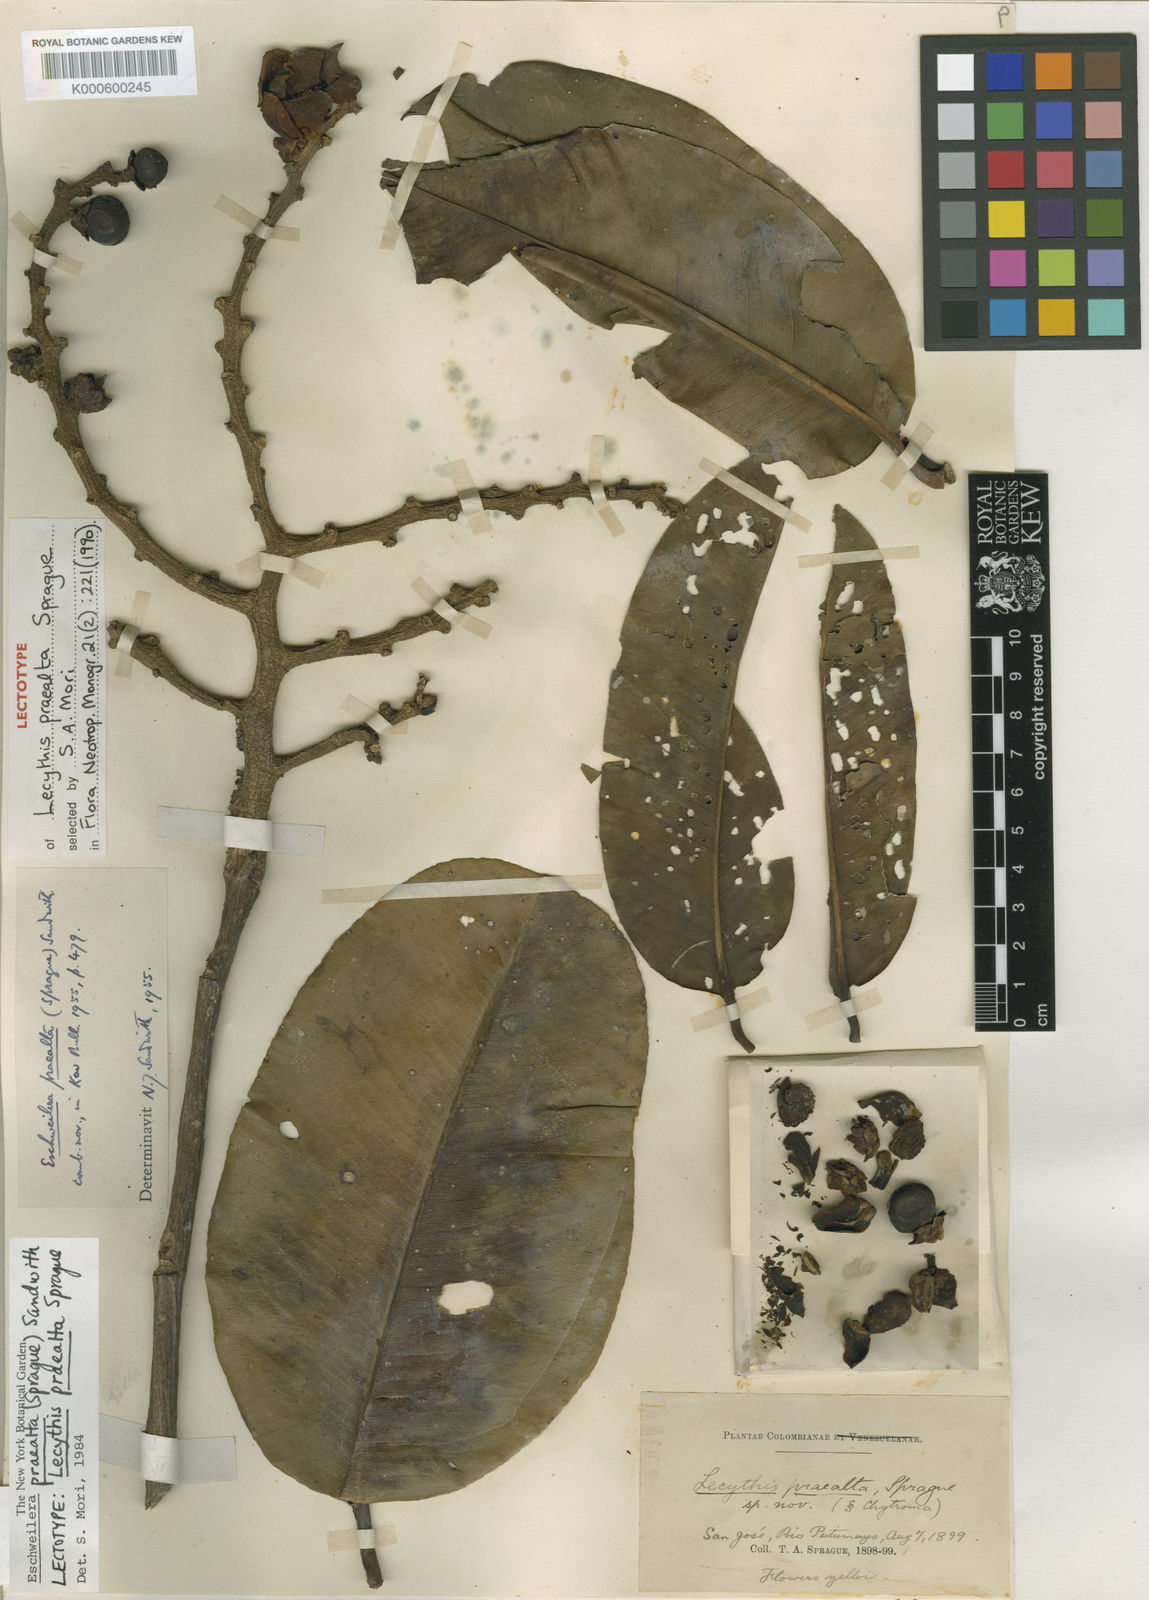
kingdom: Plantae
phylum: Tracheophyta
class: Magnoliopsida
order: Ericales
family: Lecythidaceae
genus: Eschweilera
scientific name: Eschweilera praealta
